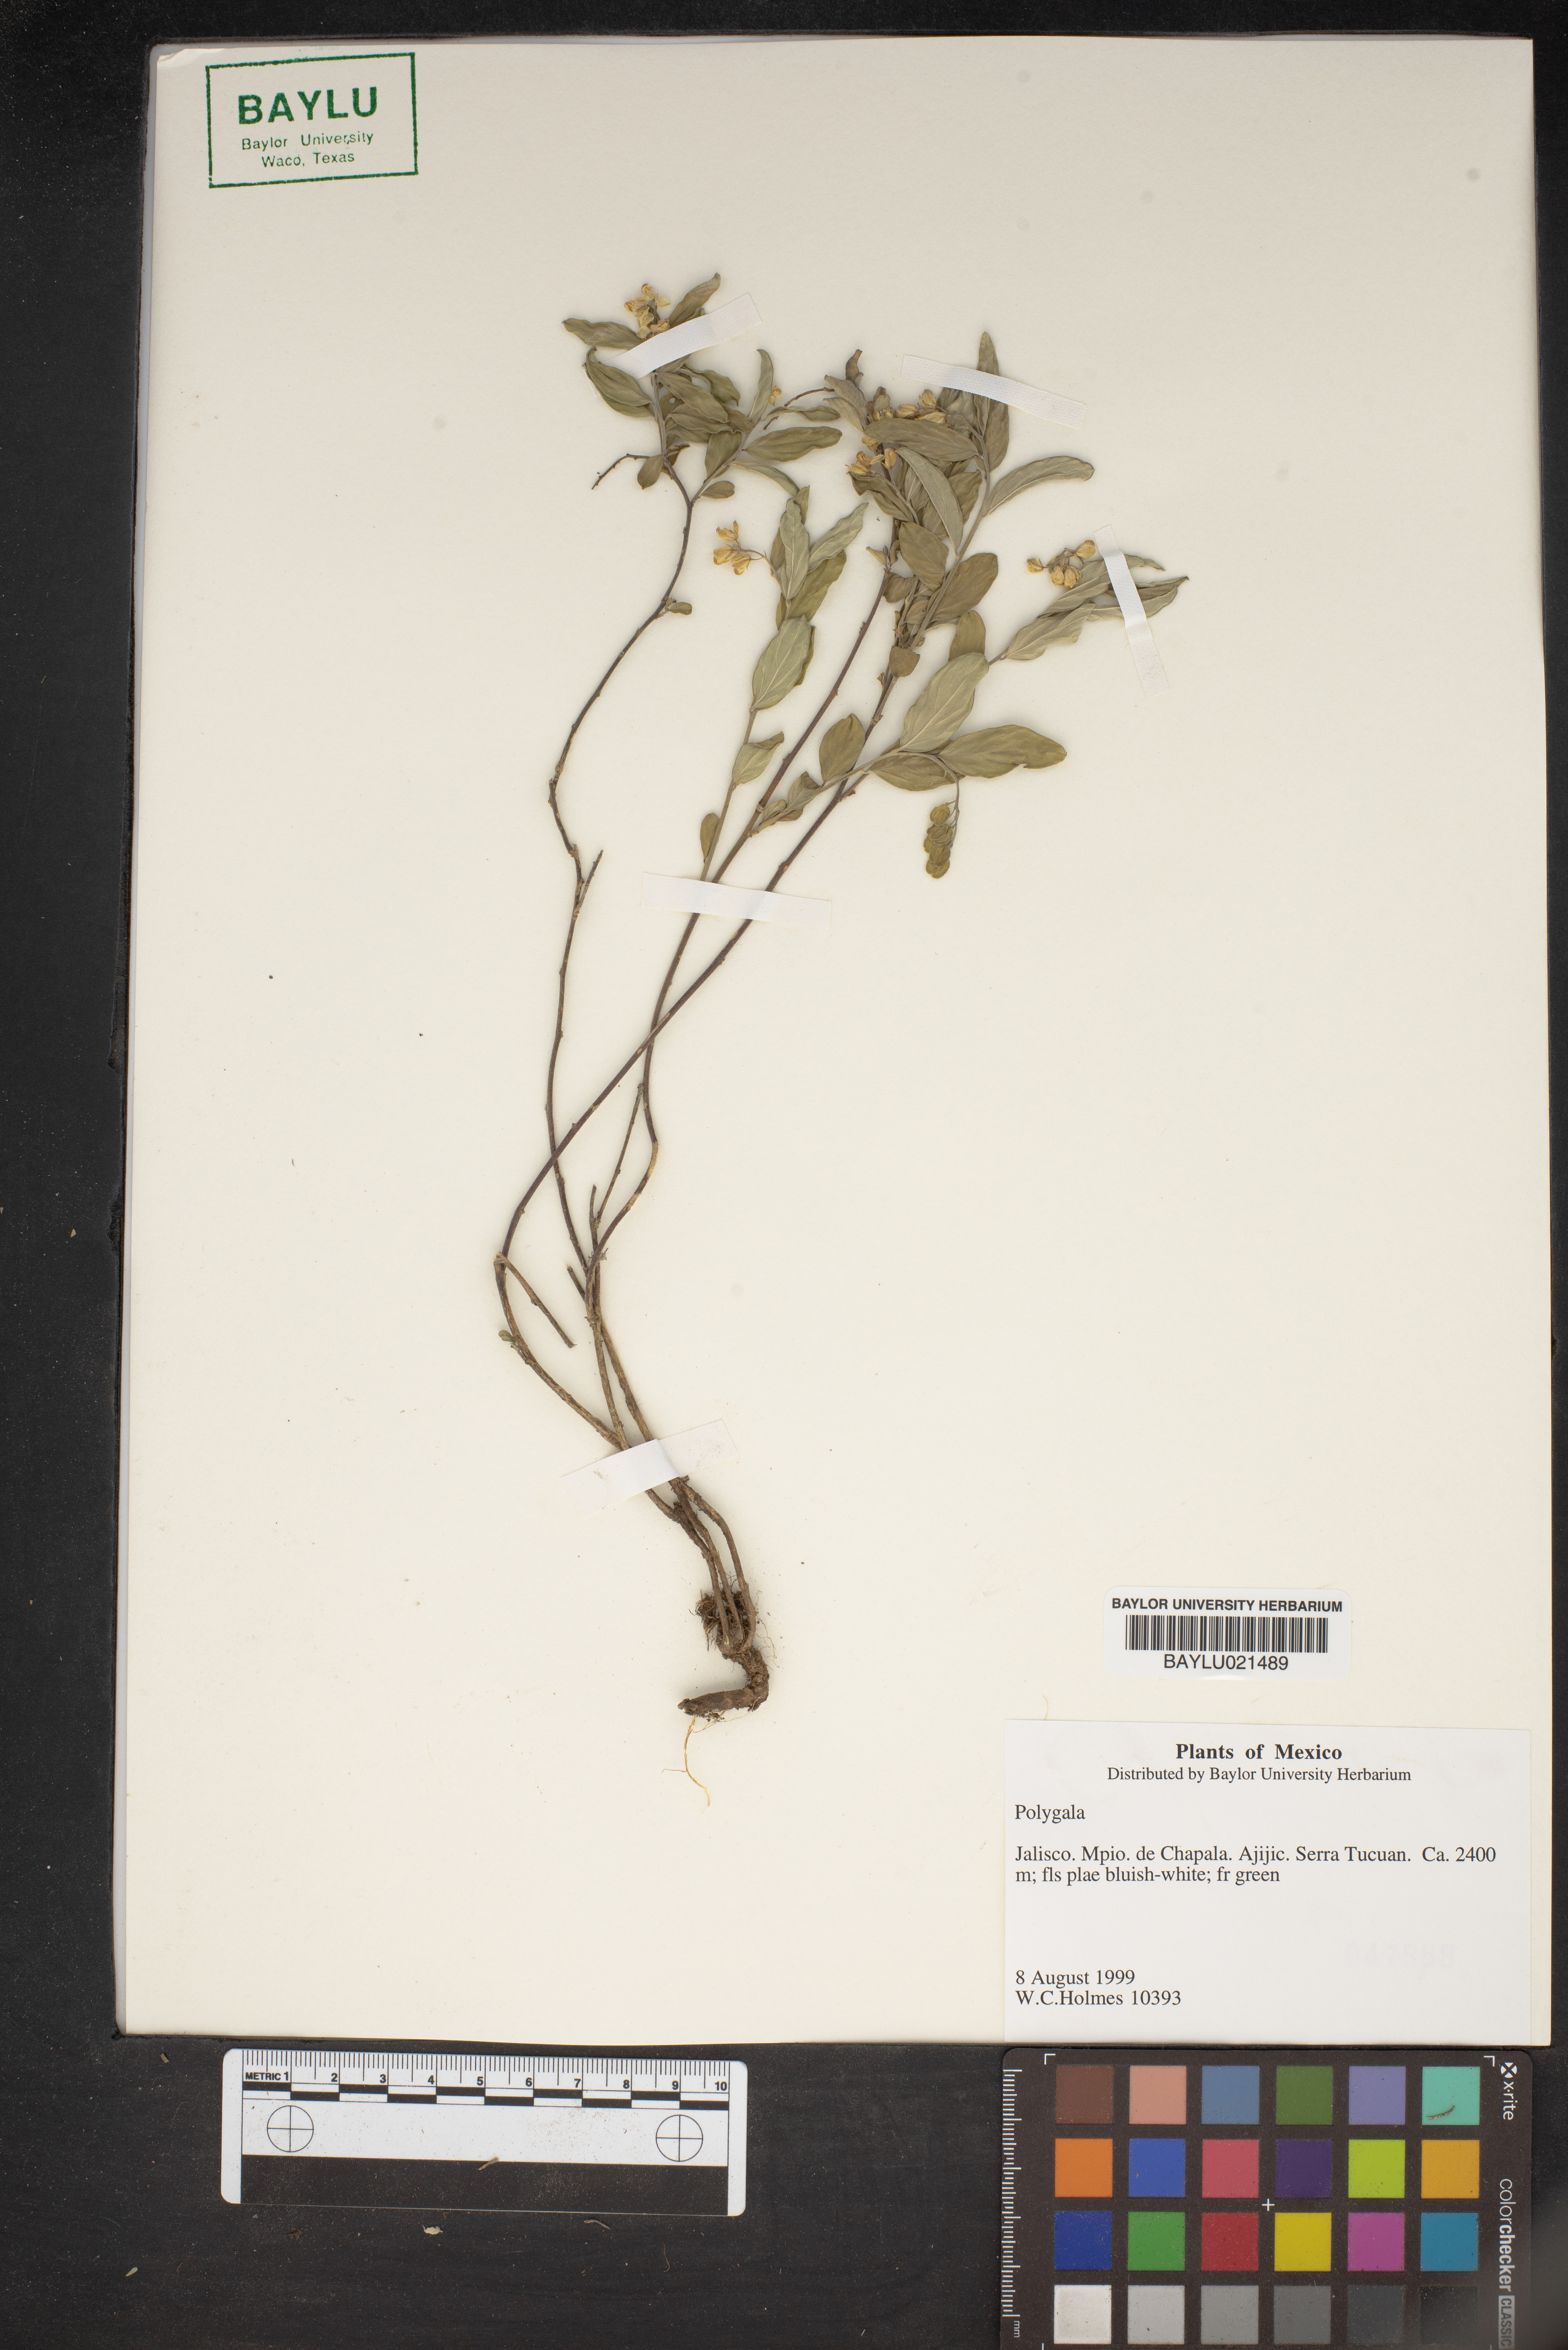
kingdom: Plantae
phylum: Tracheophyta
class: Magnoliopsida
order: Fabales
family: Polygalaceae
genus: Polygala
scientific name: Polygala
